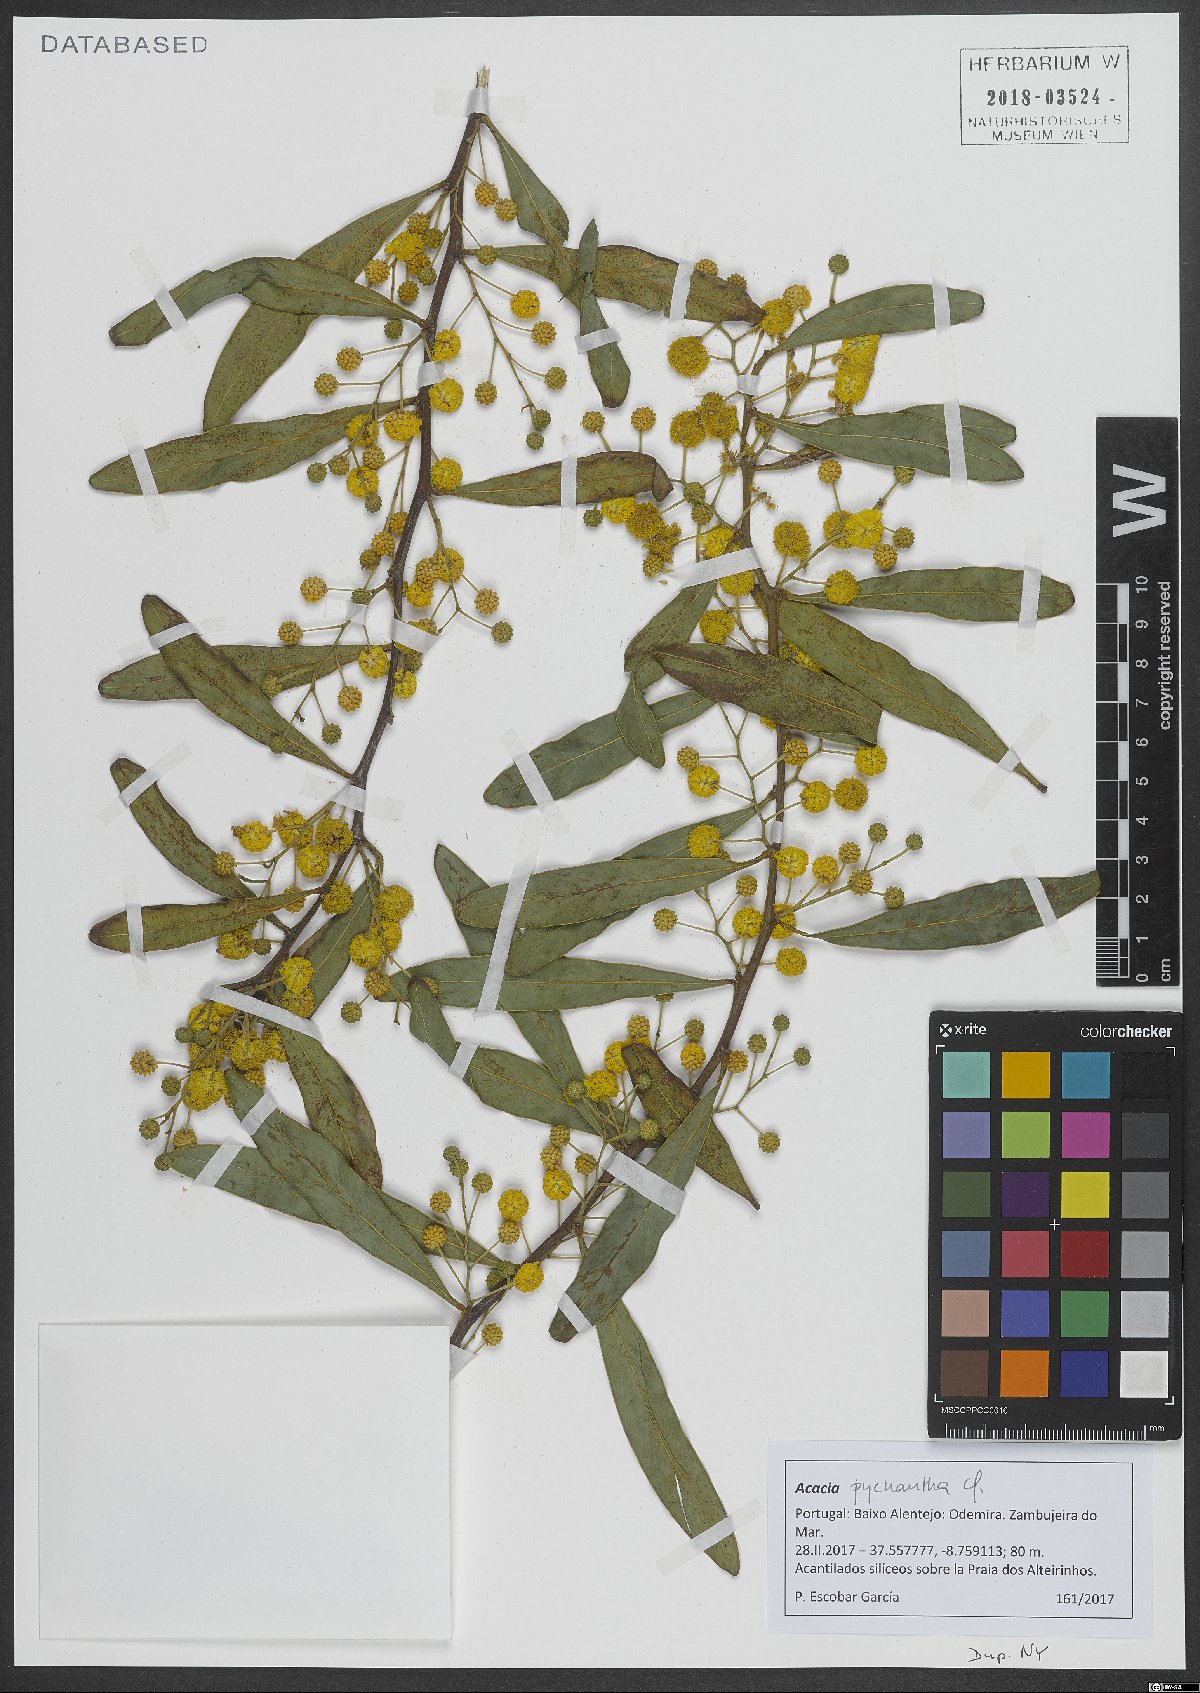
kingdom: Plantae
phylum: Tracheophyta
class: Magnoliopsida
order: Fabales
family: Fabaceae
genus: Acacia
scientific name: Acacia pycnantha
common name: Golden wattle
